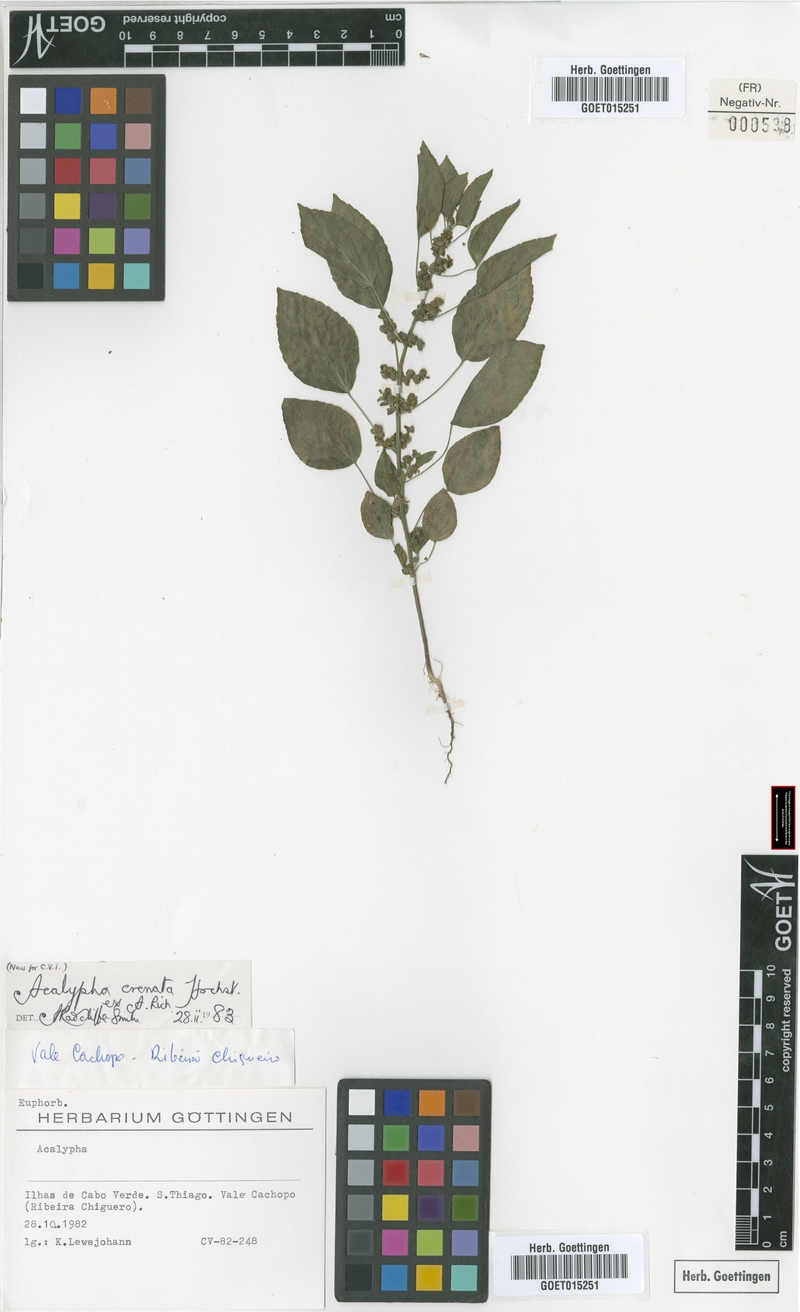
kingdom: Plantae
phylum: Tracheophyta
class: Magnoliopsida
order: Malpighiales
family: Euphorbiaceae
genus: Acalypha
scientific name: Acalypha crenata
